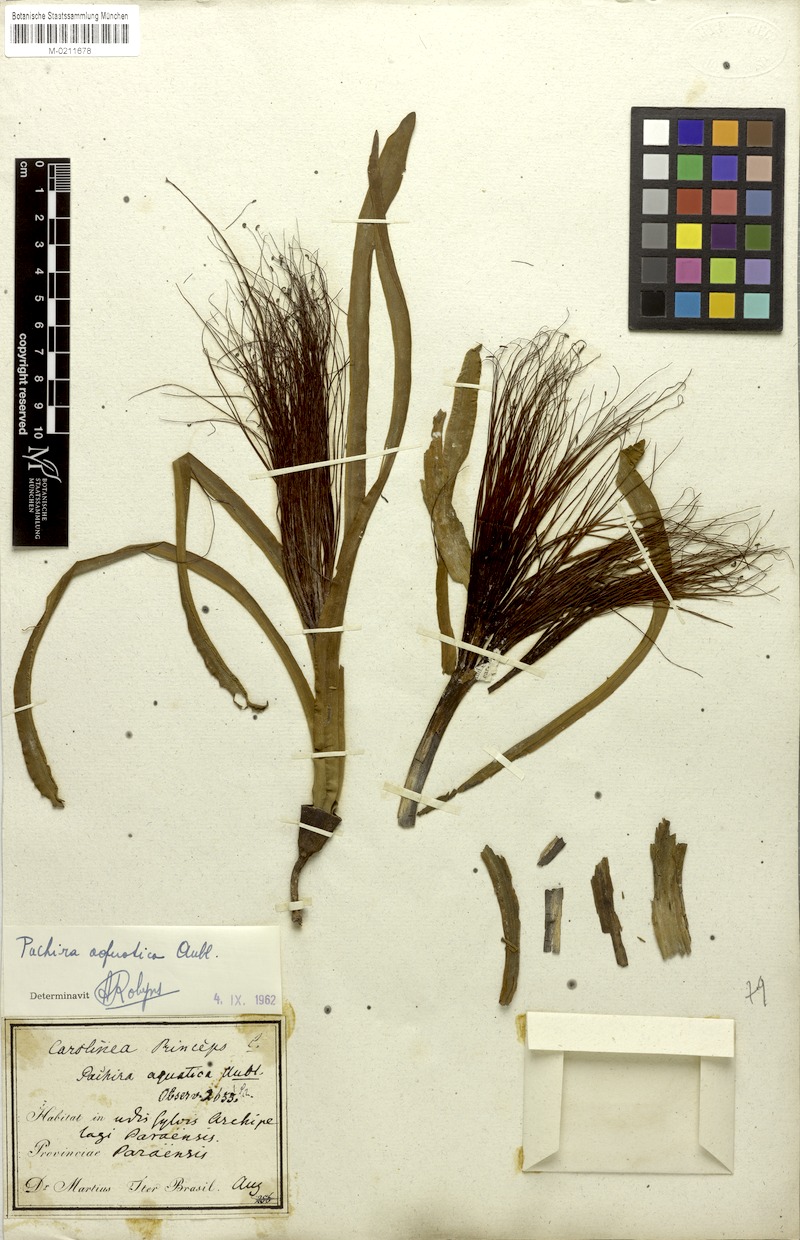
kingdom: Plantae
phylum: Tracheophyta
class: Magnoliopsida
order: Malvales
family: Malvaceae
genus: Pachira
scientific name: Pachira aquatica
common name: Provision-tree
